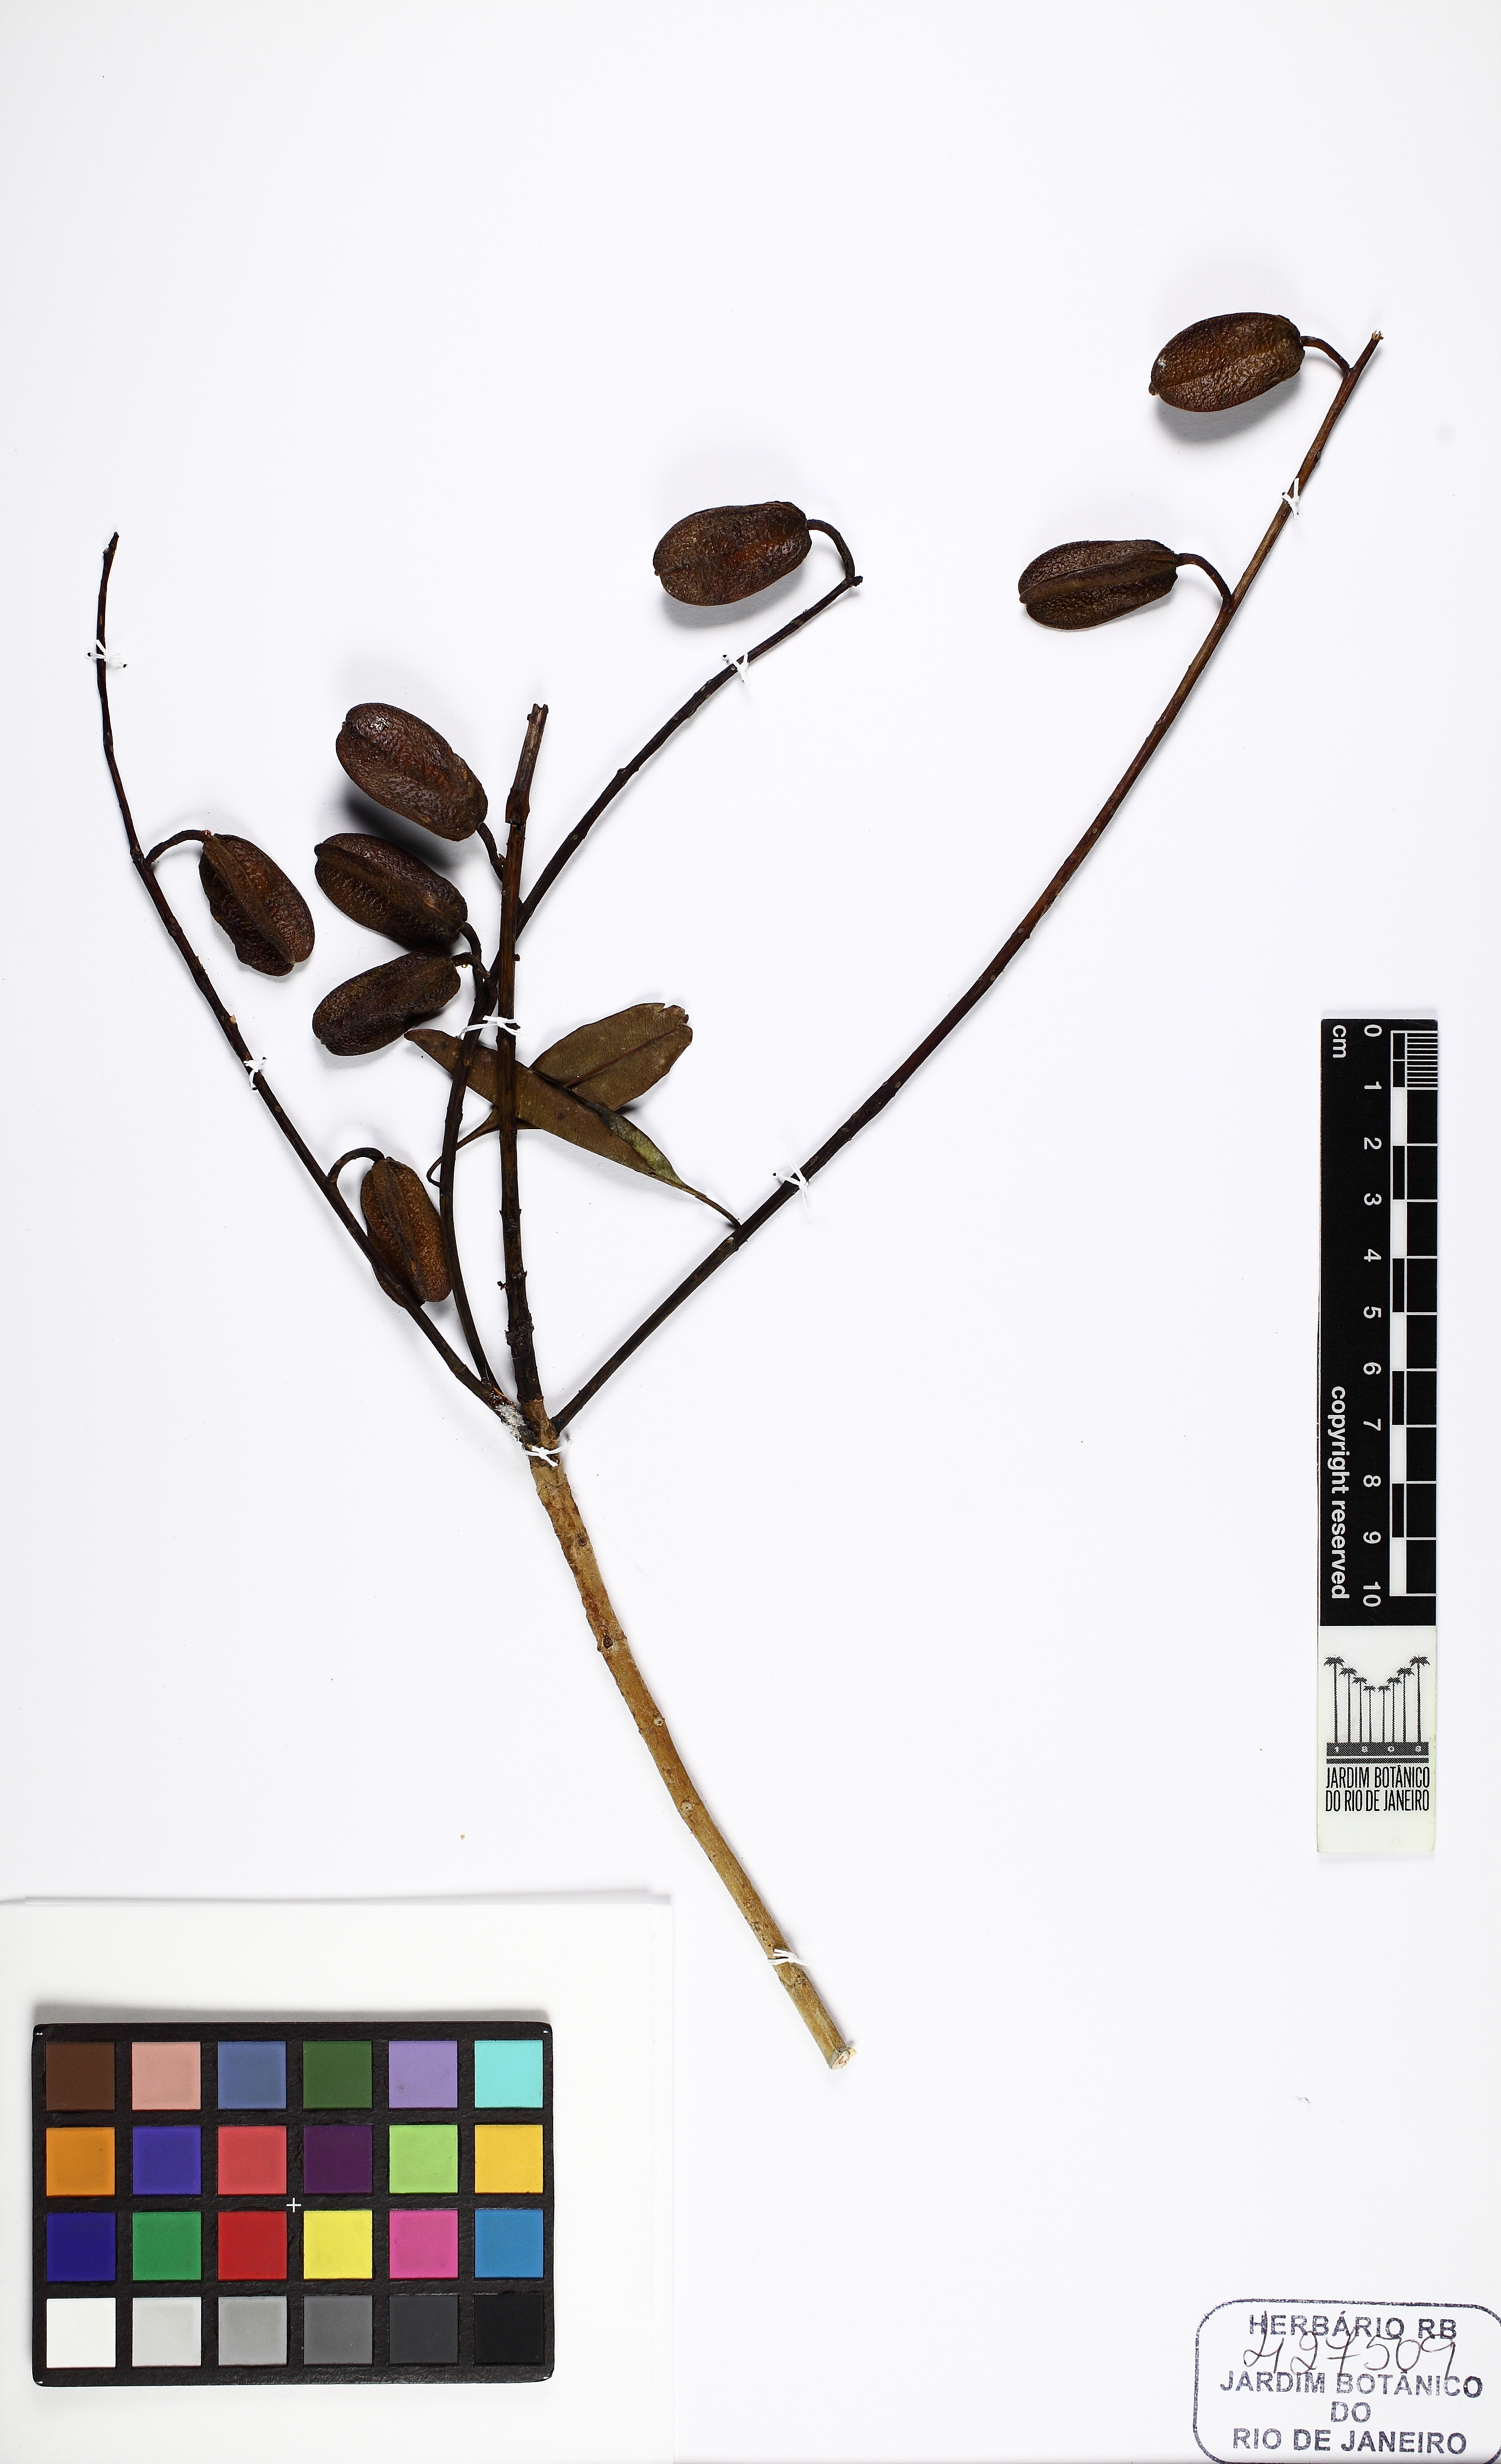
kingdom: Plantae
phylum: Tracheophyta
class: Magnoliopsida
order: Myrtales
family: Vochysiaceae
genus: Vochysia
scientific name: Vochysia haenkeana
